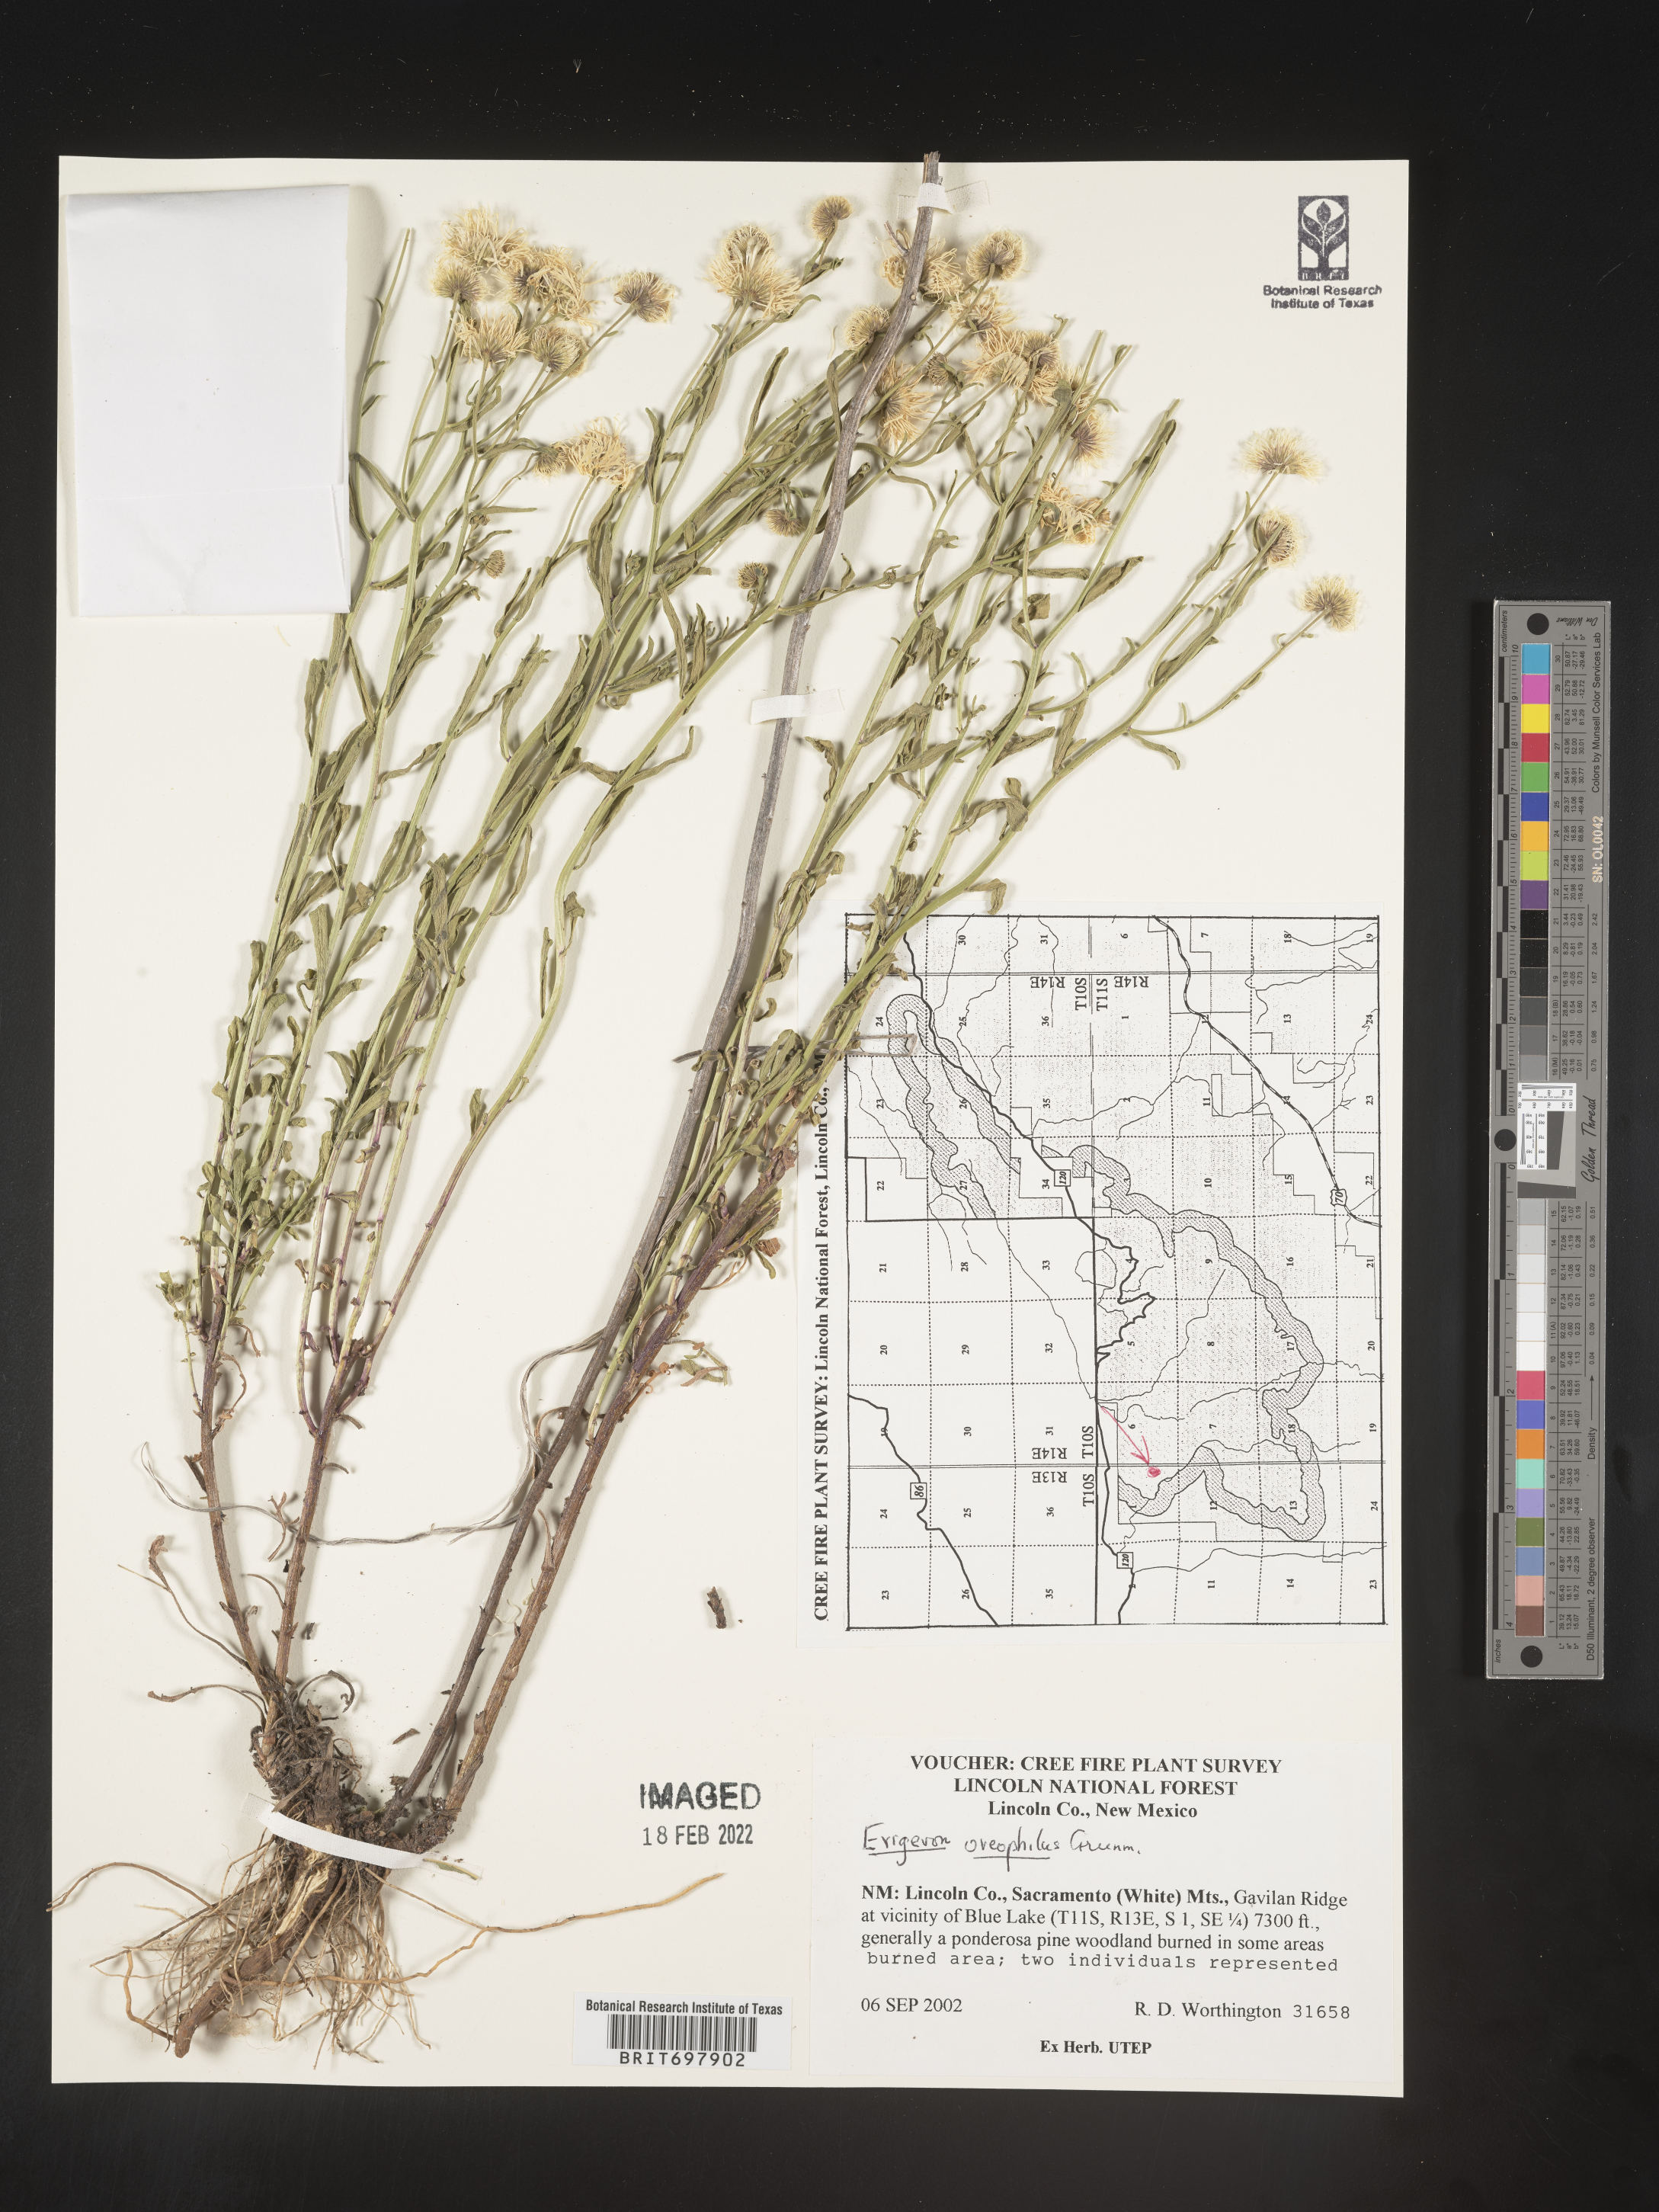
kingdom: Plantae
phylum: Tracheophyta
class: Magnoliopsida
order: Asterales
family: Asteraceae
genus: Erigeron
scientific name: Erigeron oreophilus
